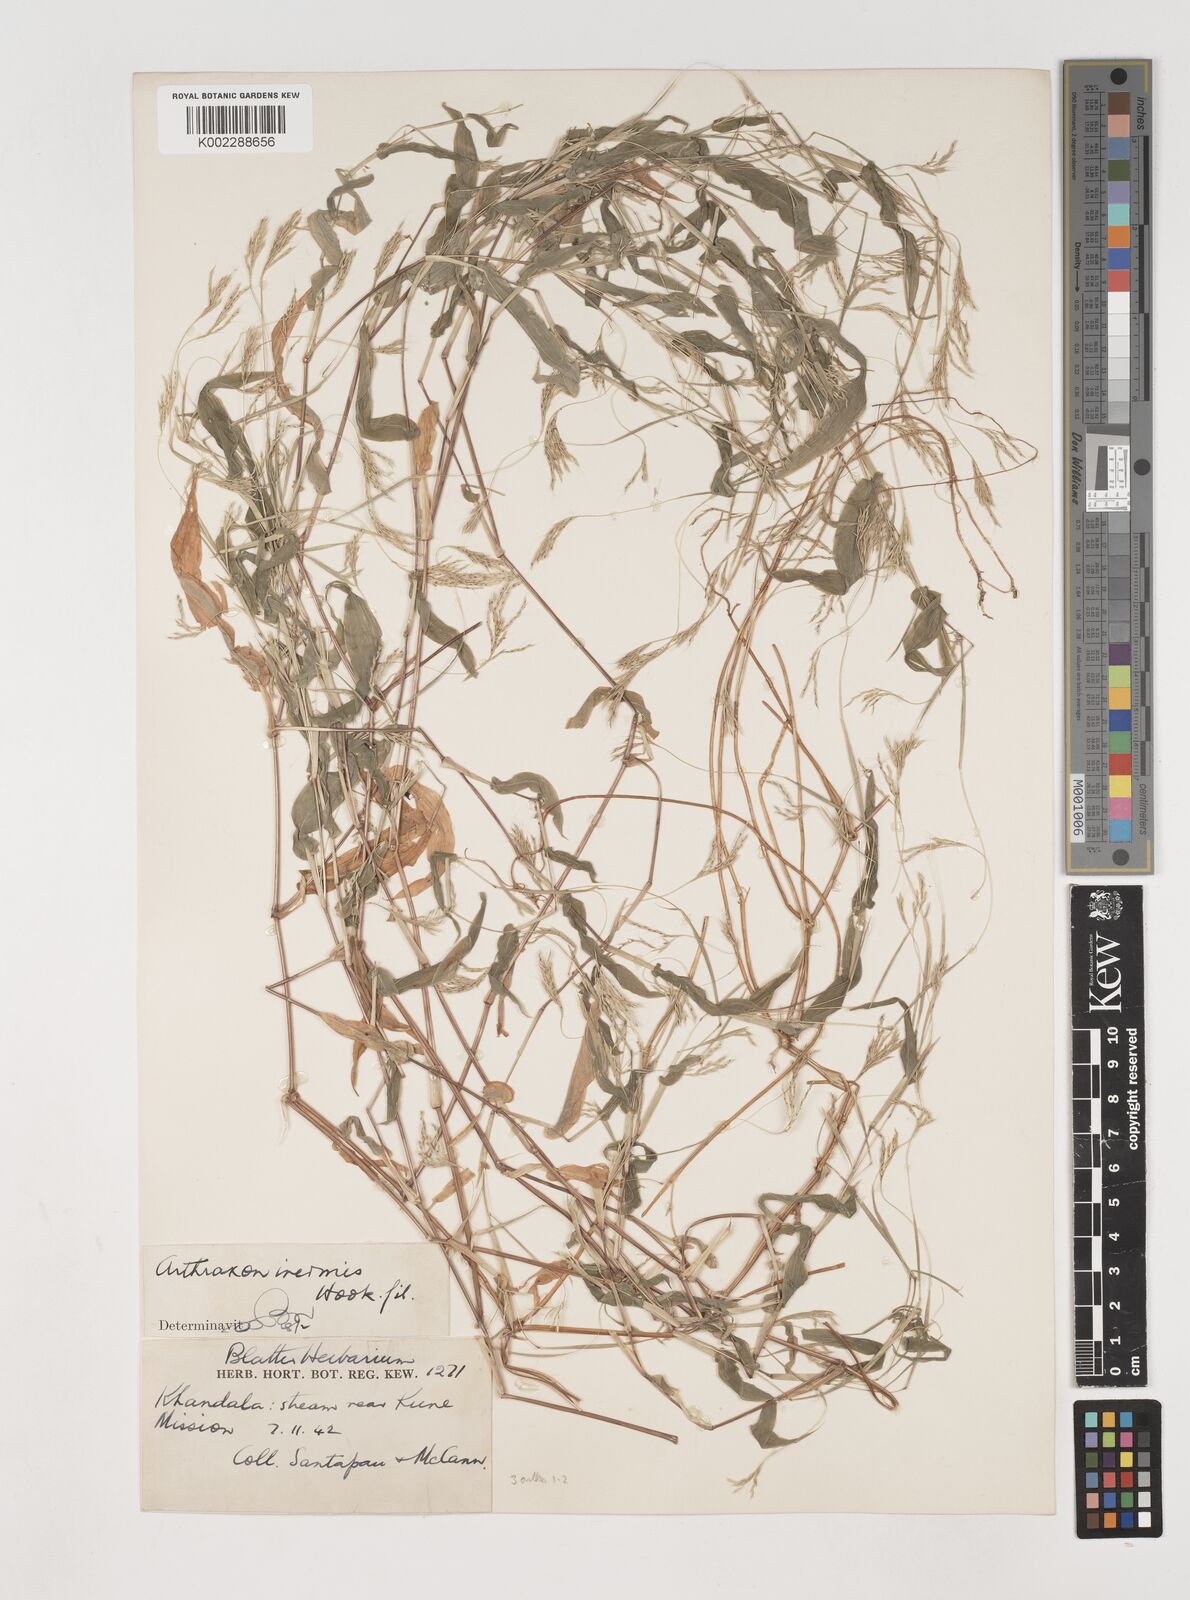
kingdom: Plantae
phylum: Tracheophyta
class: Liliopsida
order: Poales
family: Poaceae
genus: Arthraxon
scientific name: Arthraxon inermis
